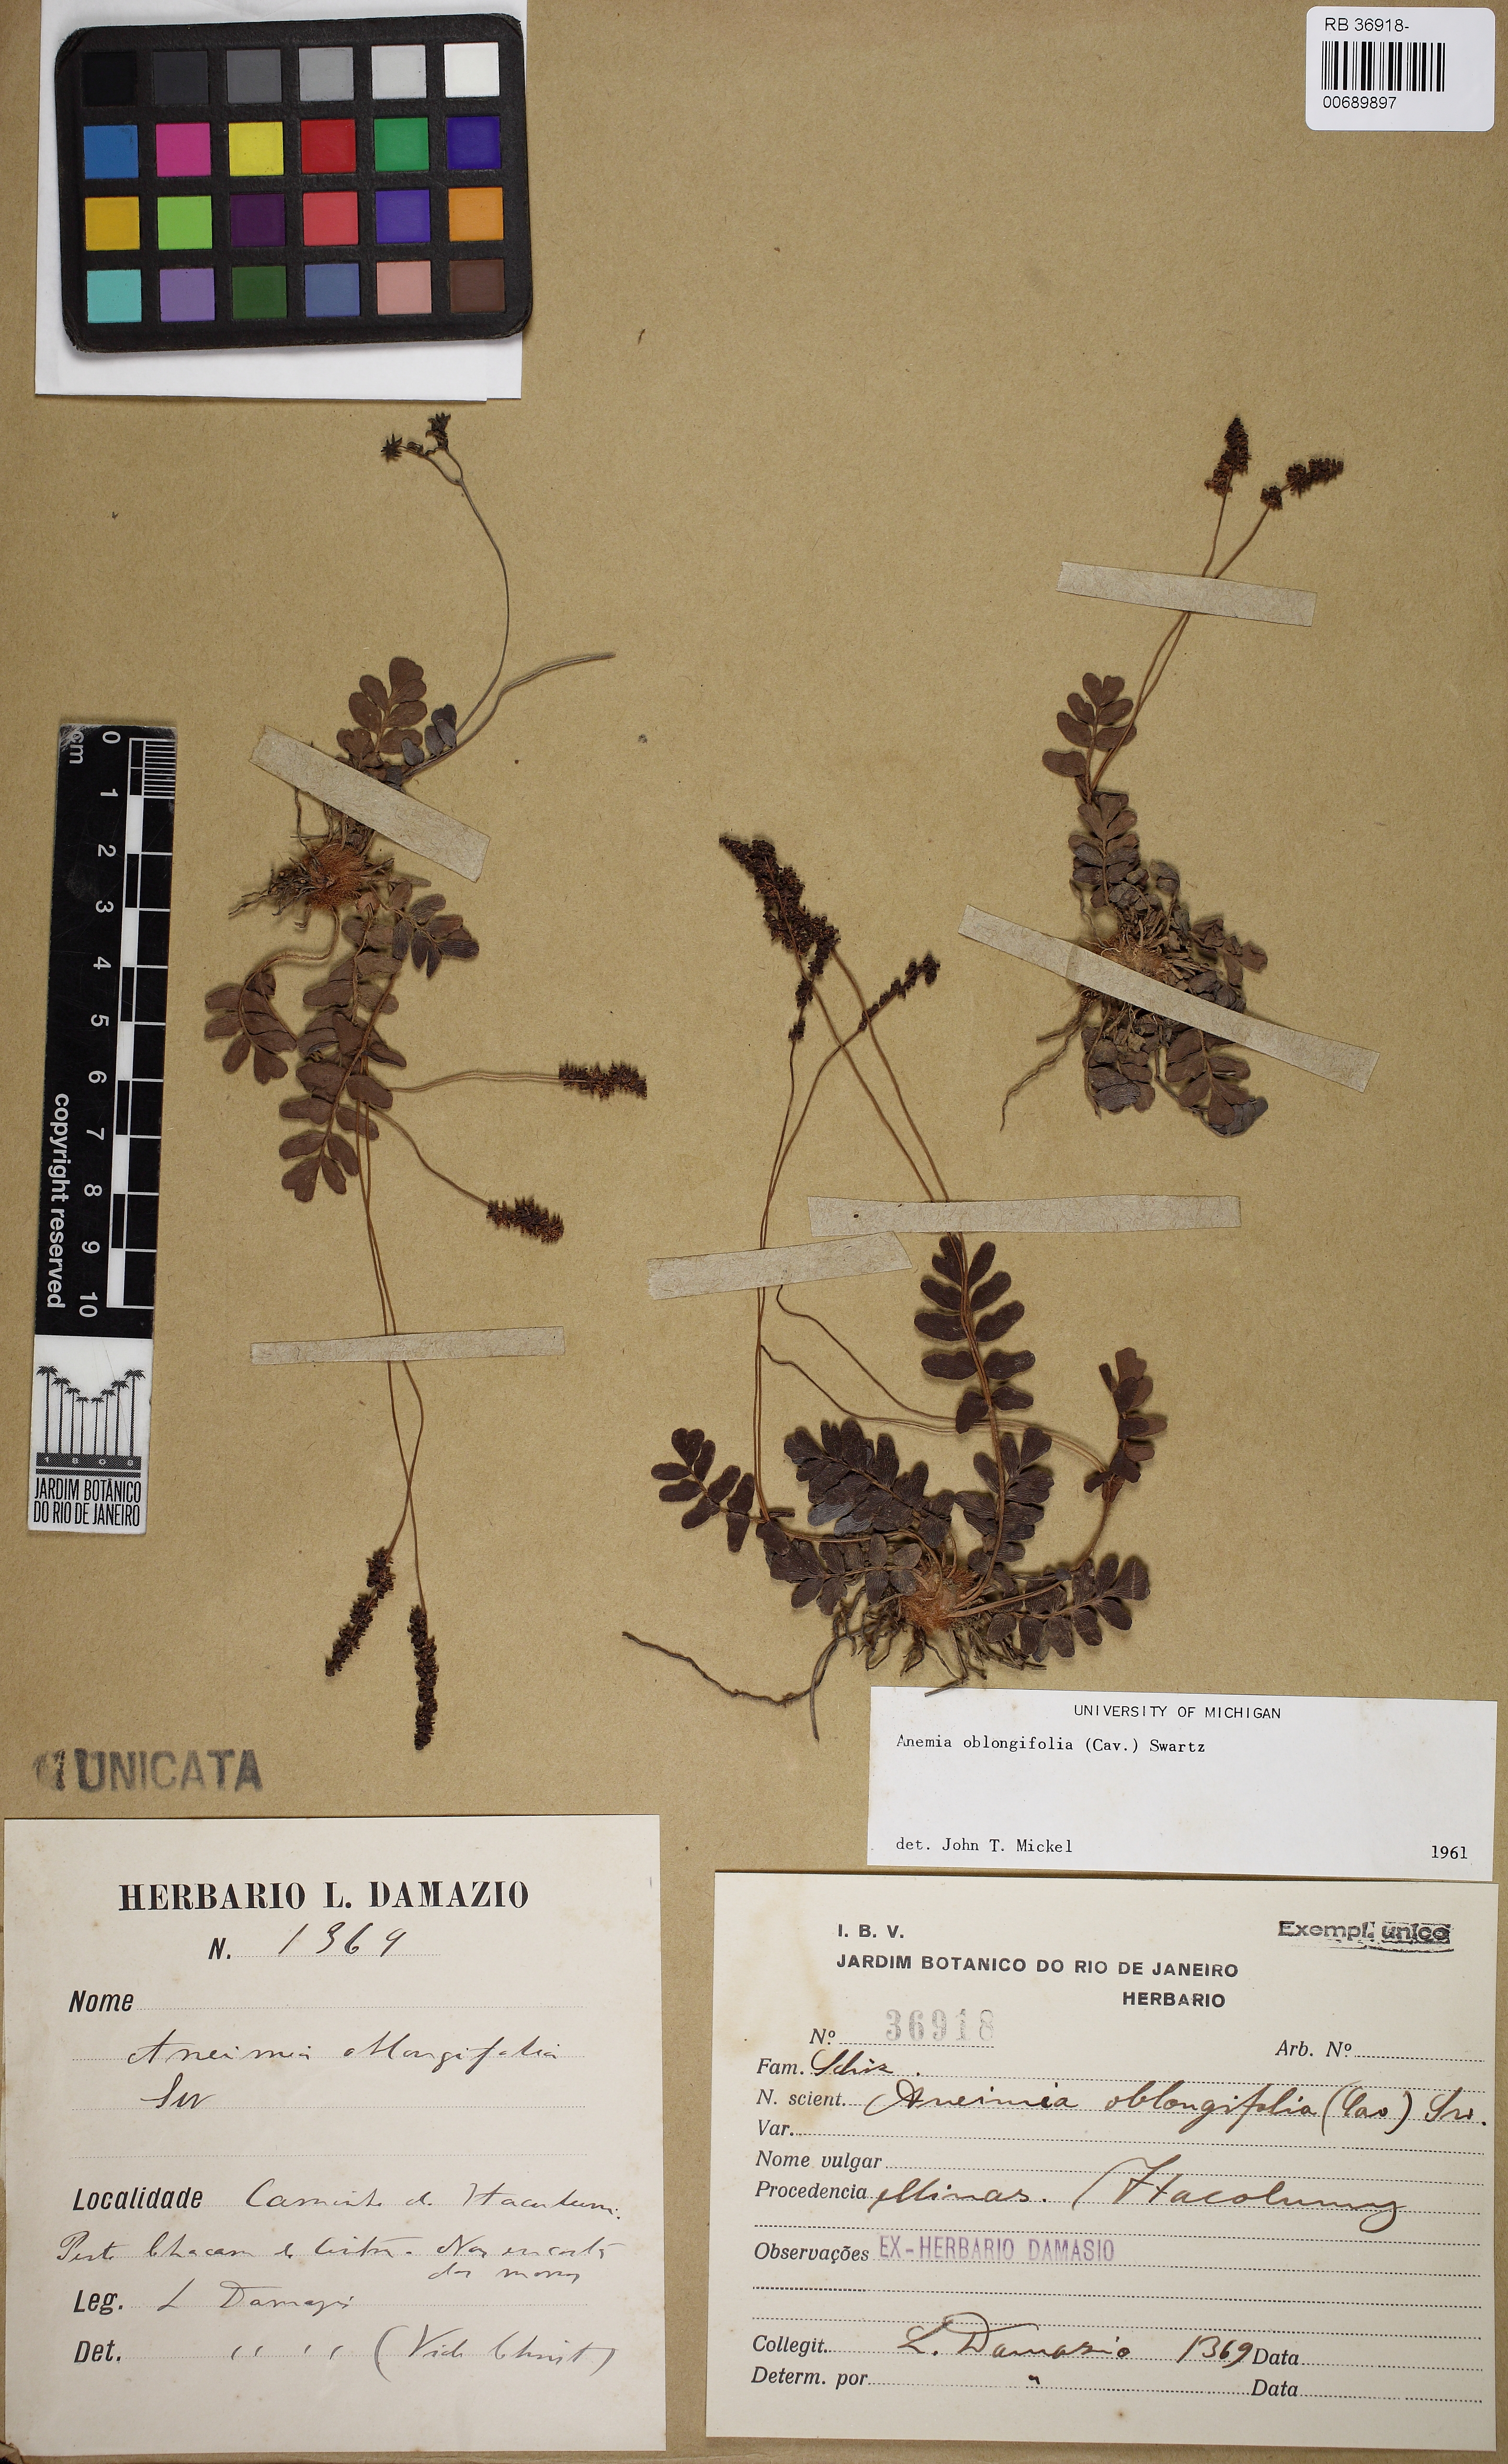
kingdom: Plantae
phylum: Tracheophyta
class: Polypodiopsida
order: Schizaeales
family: Anemiaceae
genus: Anemia
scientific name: Anemia oblongifolia
